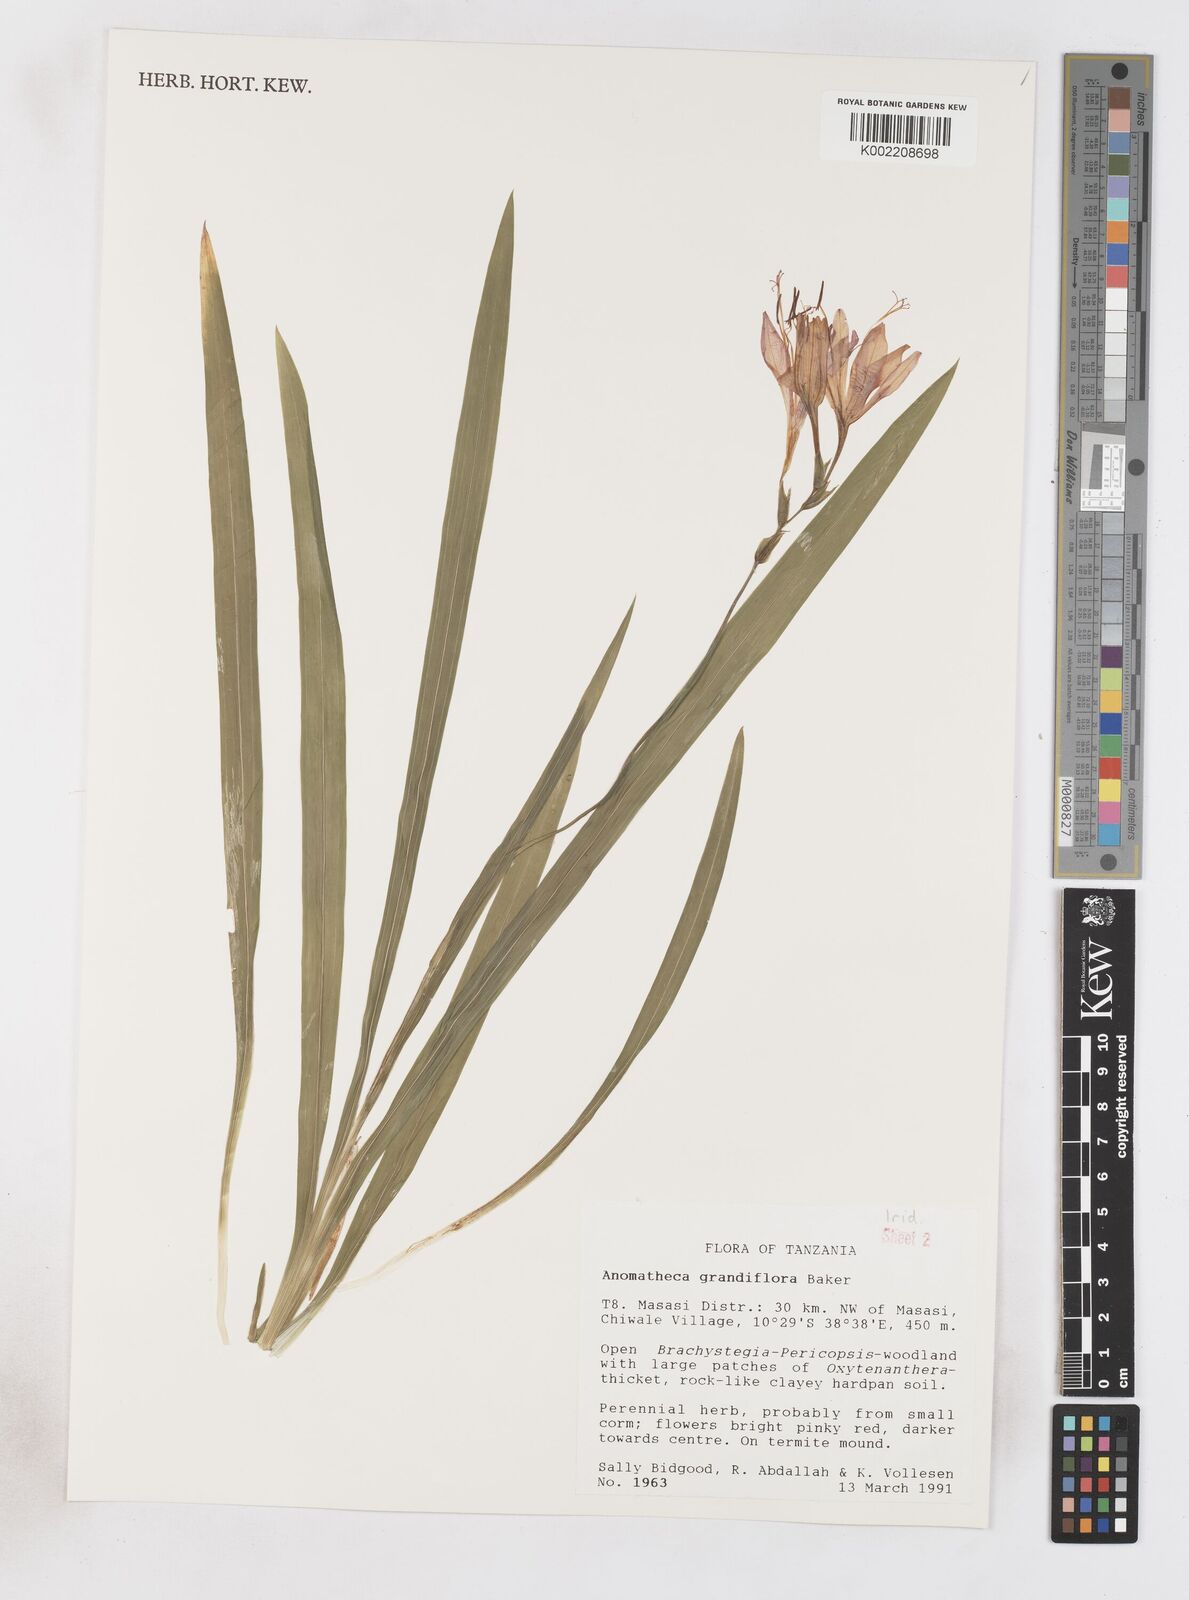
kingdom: Plantae
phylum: Tracheophyta
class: Liliopsida
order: Asparagales
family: Iridaceae
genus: Freesia
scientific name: Freesia grandiflora
